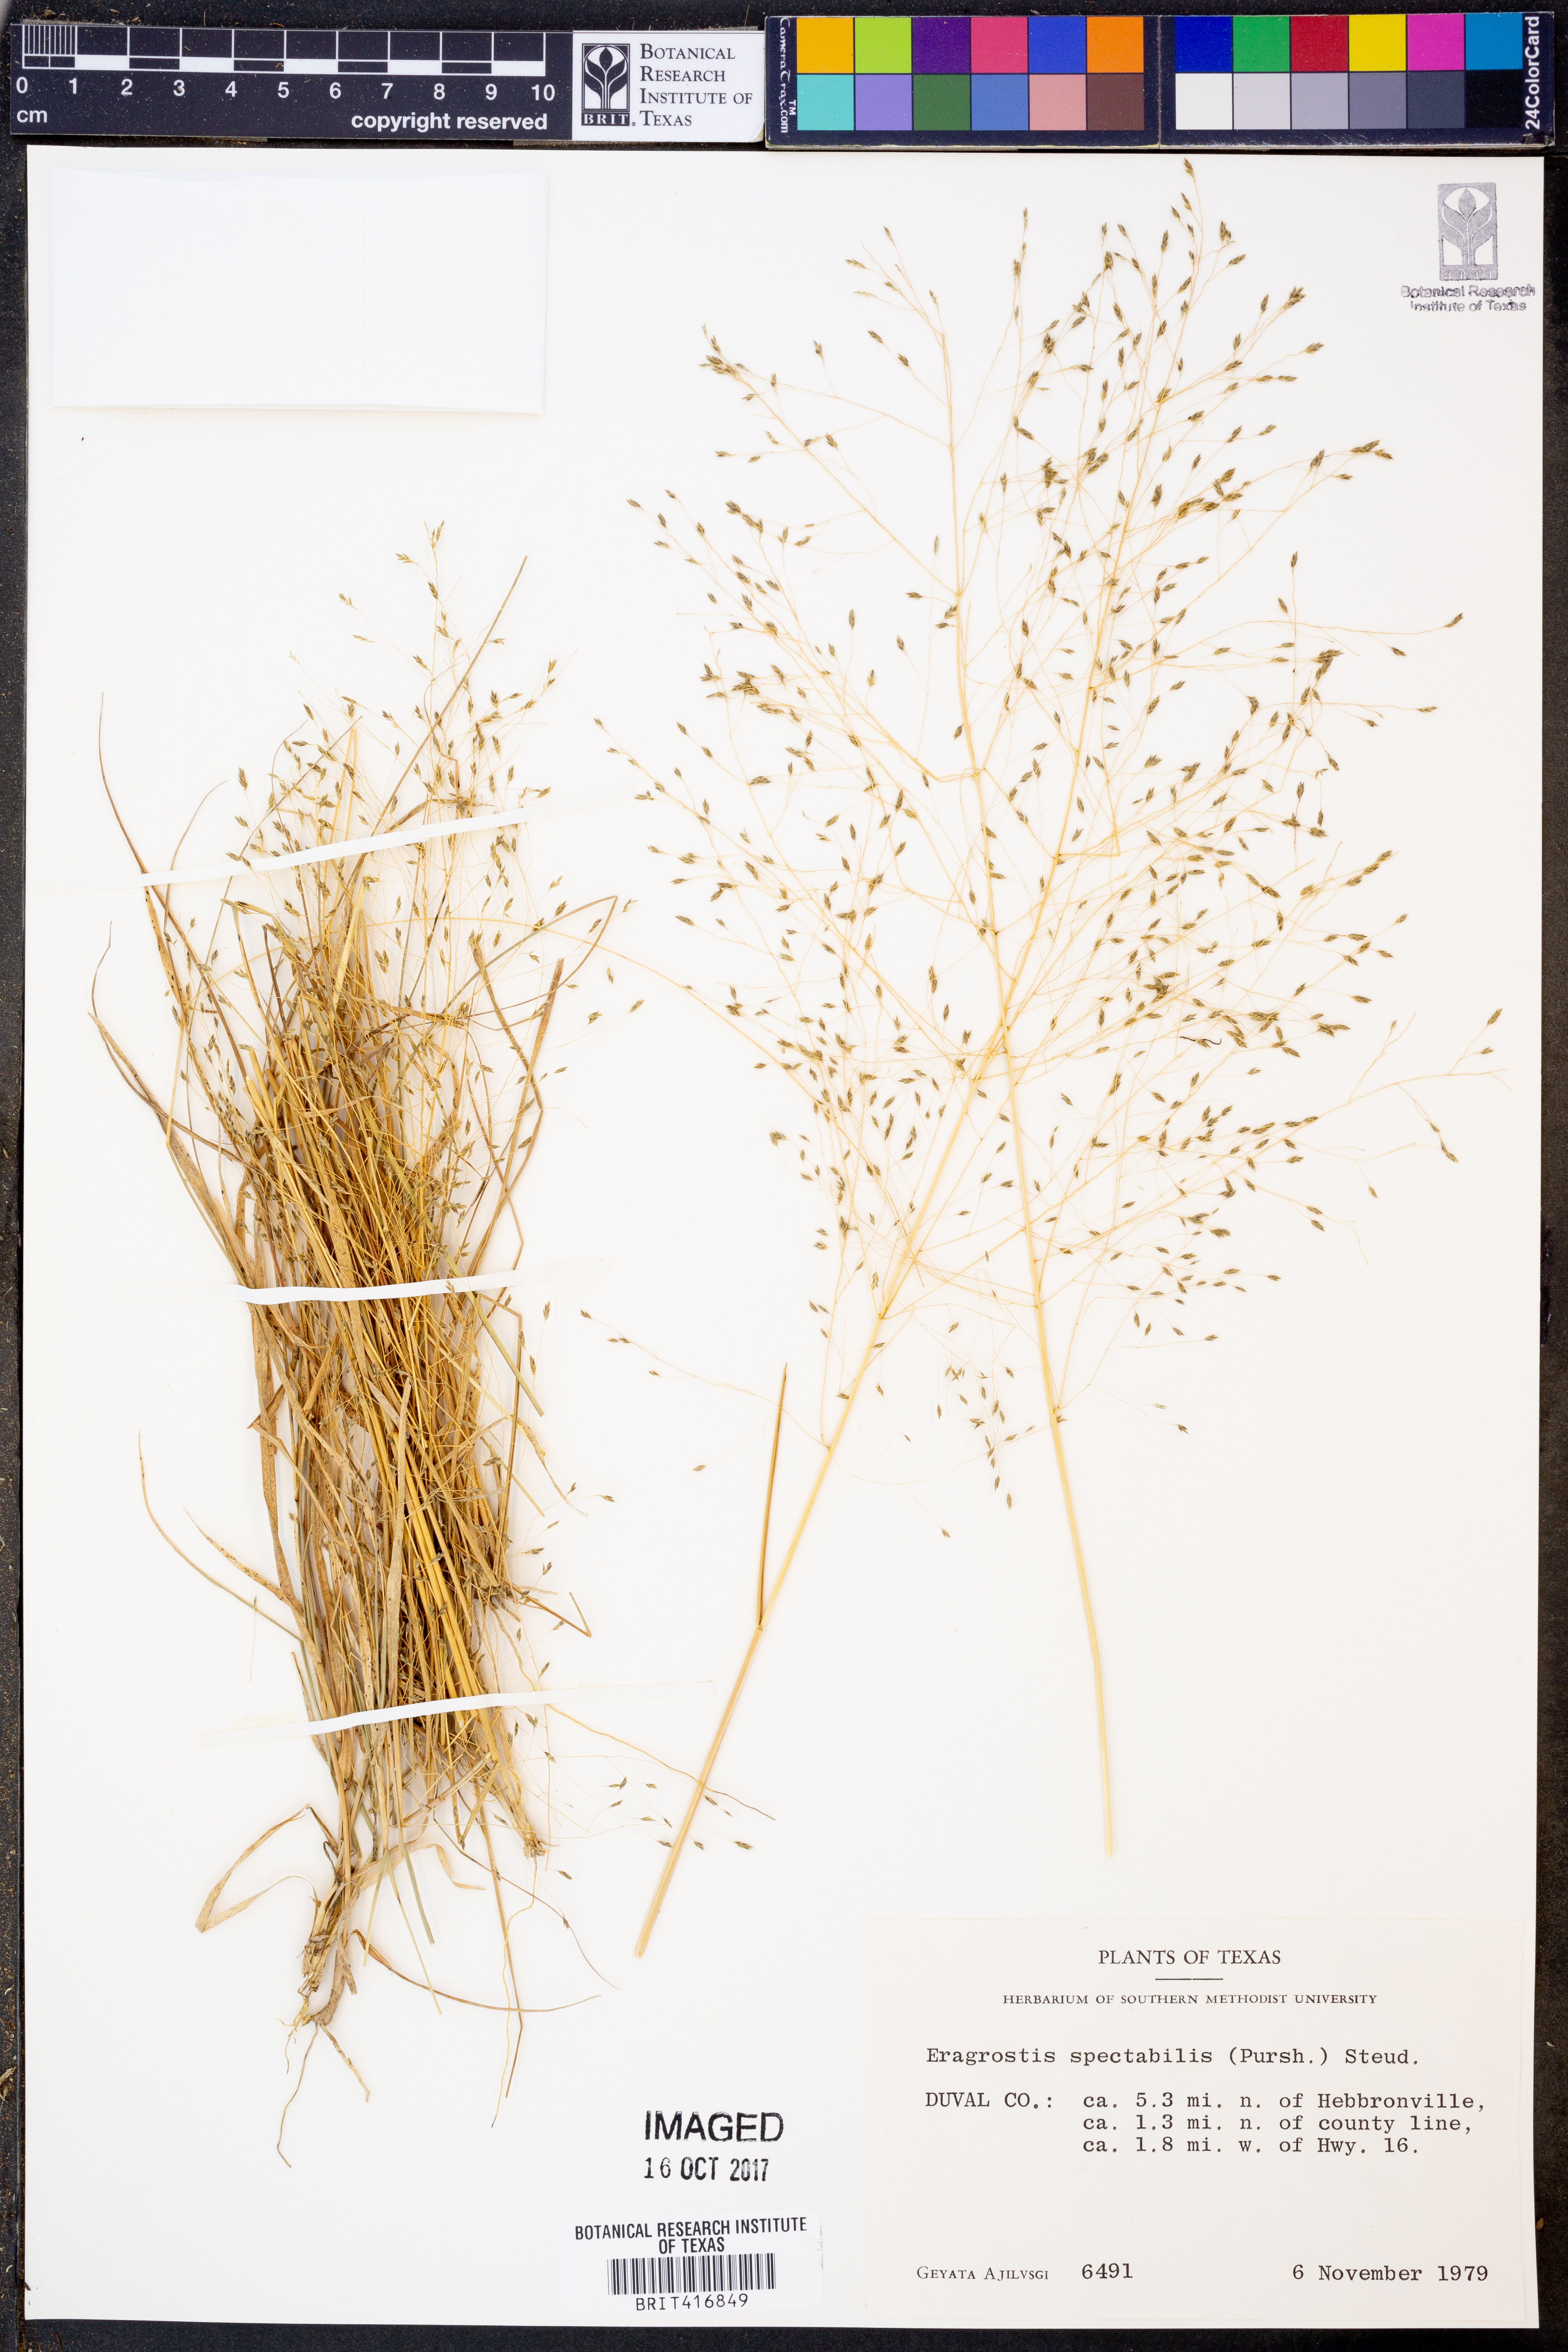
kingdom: Plantae
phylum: Tracheophyta
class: Liliopsida
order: Poales
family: Poaceae
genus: Eragrostis
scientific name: Eragrostis spectabilis
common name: Petticoat-climber
